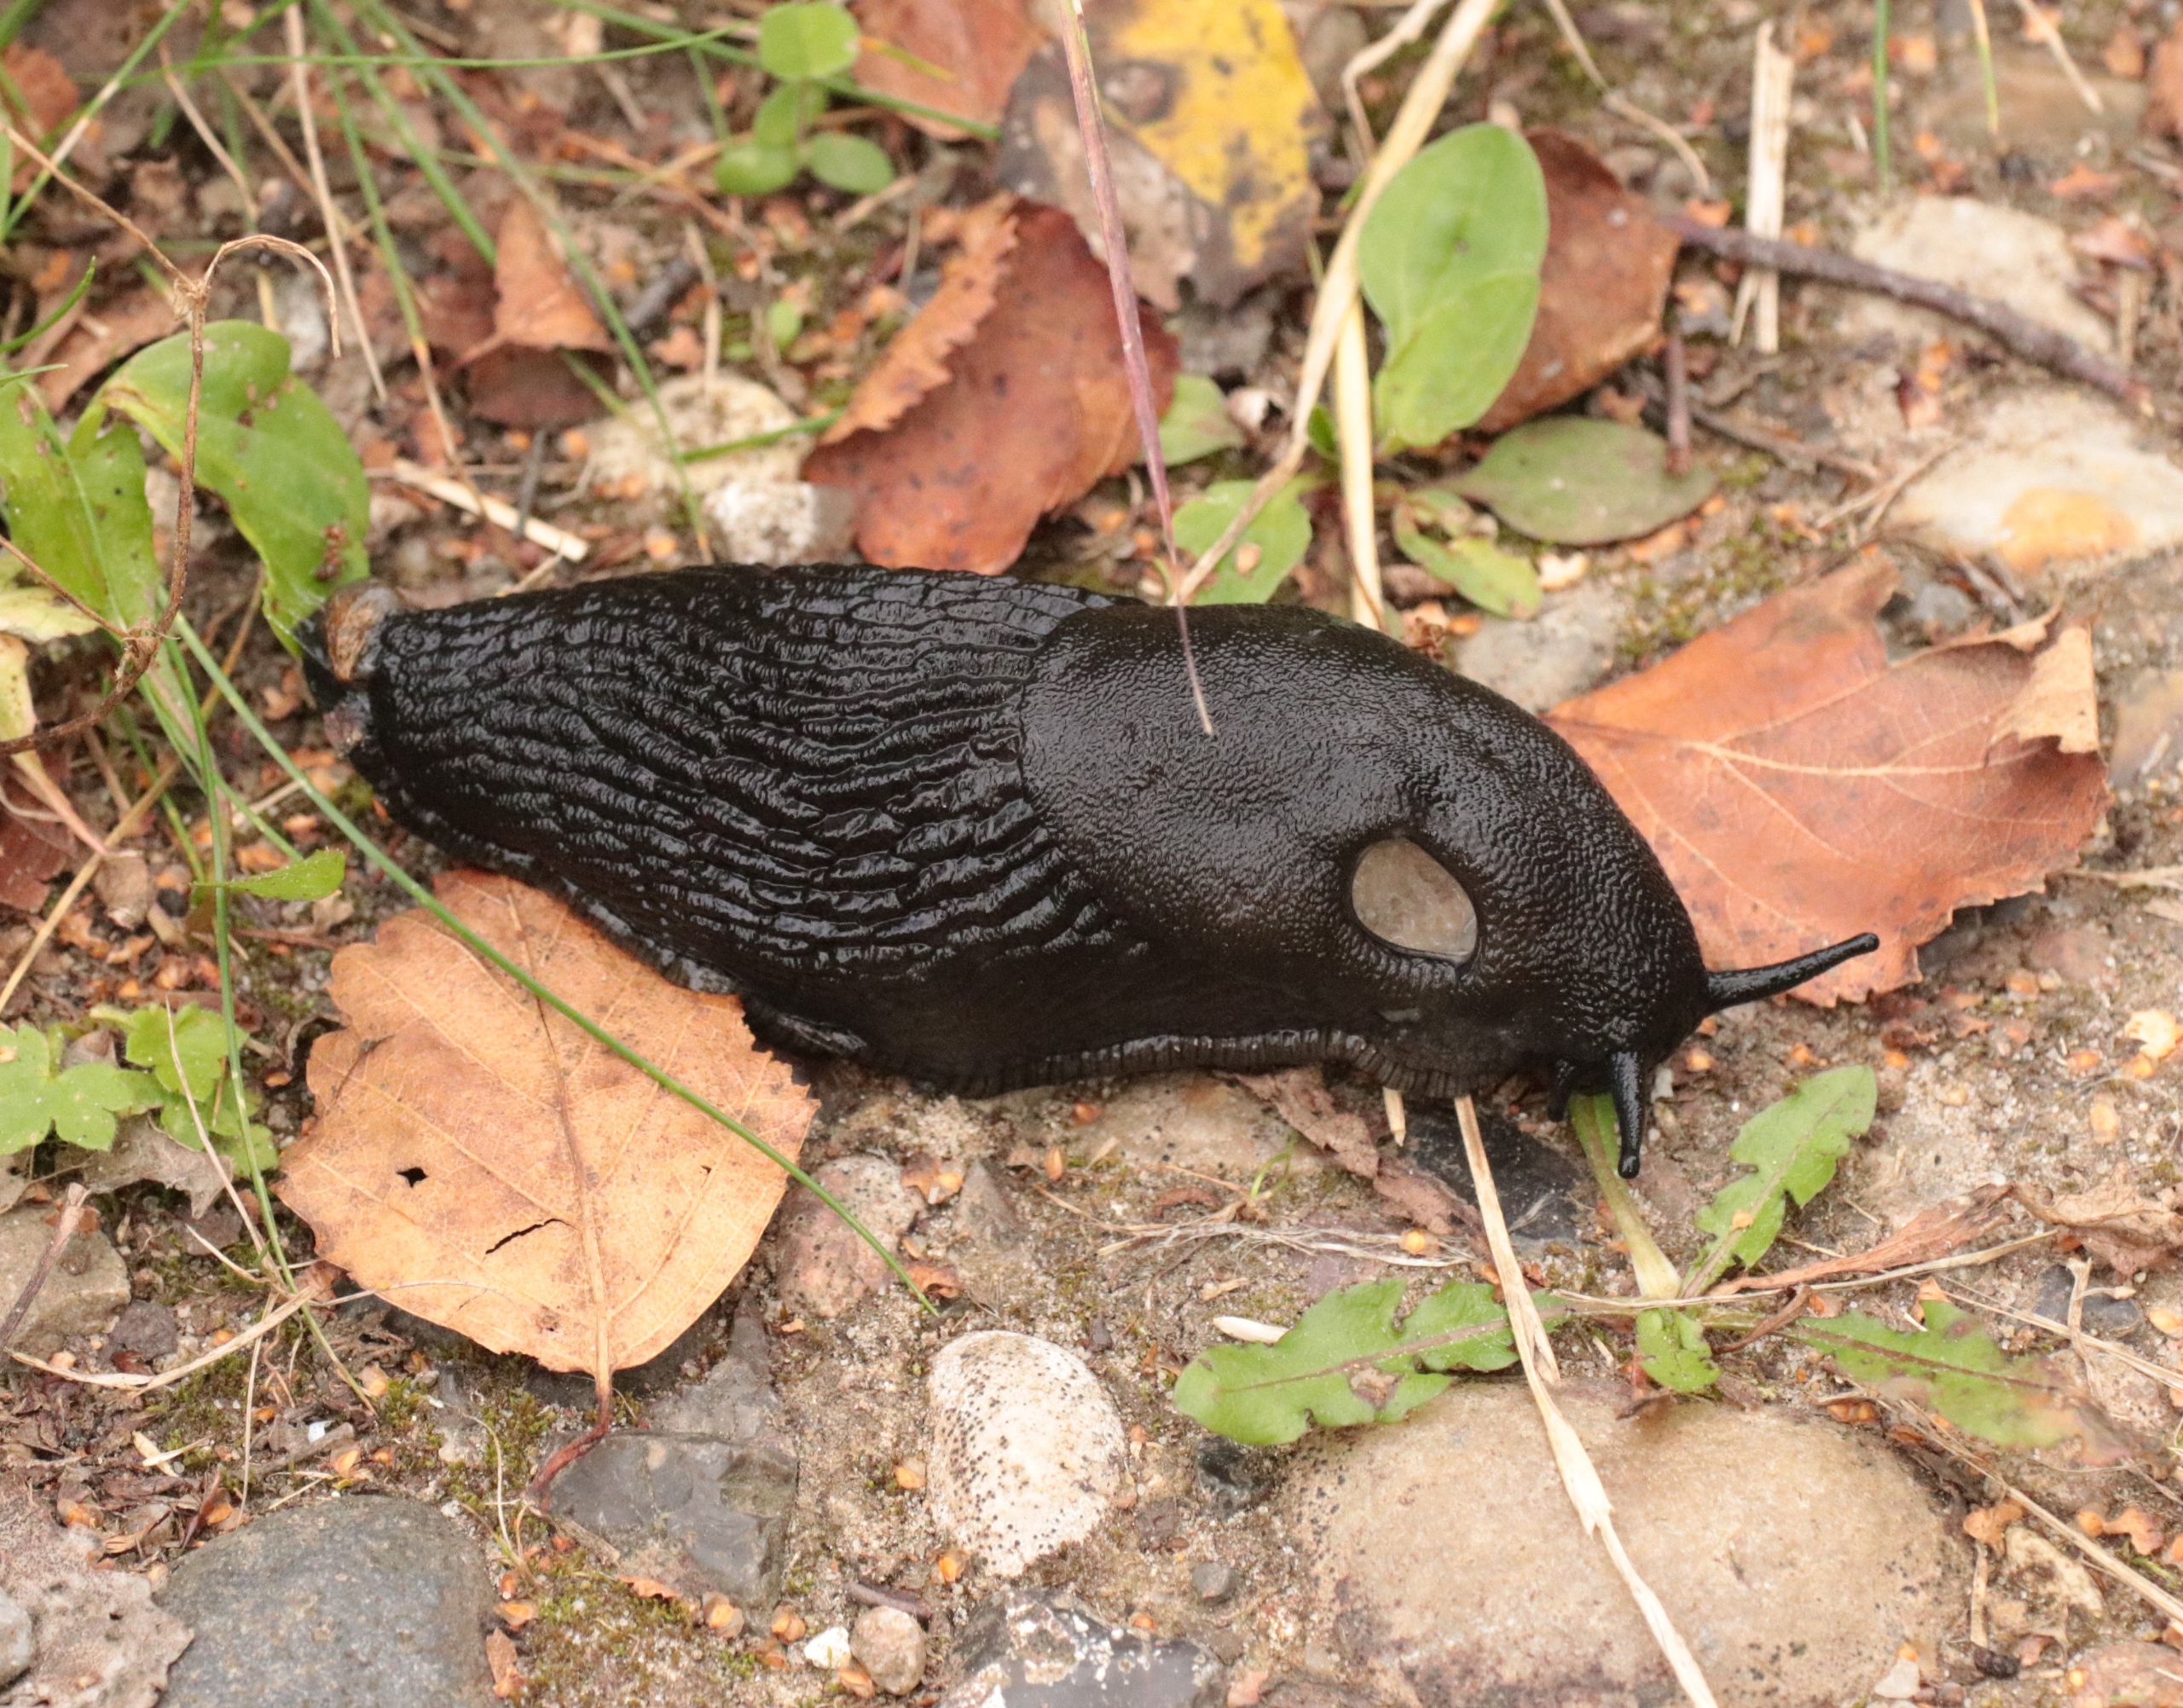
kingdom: Animalia
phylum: Mollusca
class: Gastropoda
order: Stylommatophora
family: Arionidae
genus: Arion
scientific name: Arion ater
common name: Sort skovsnegl
